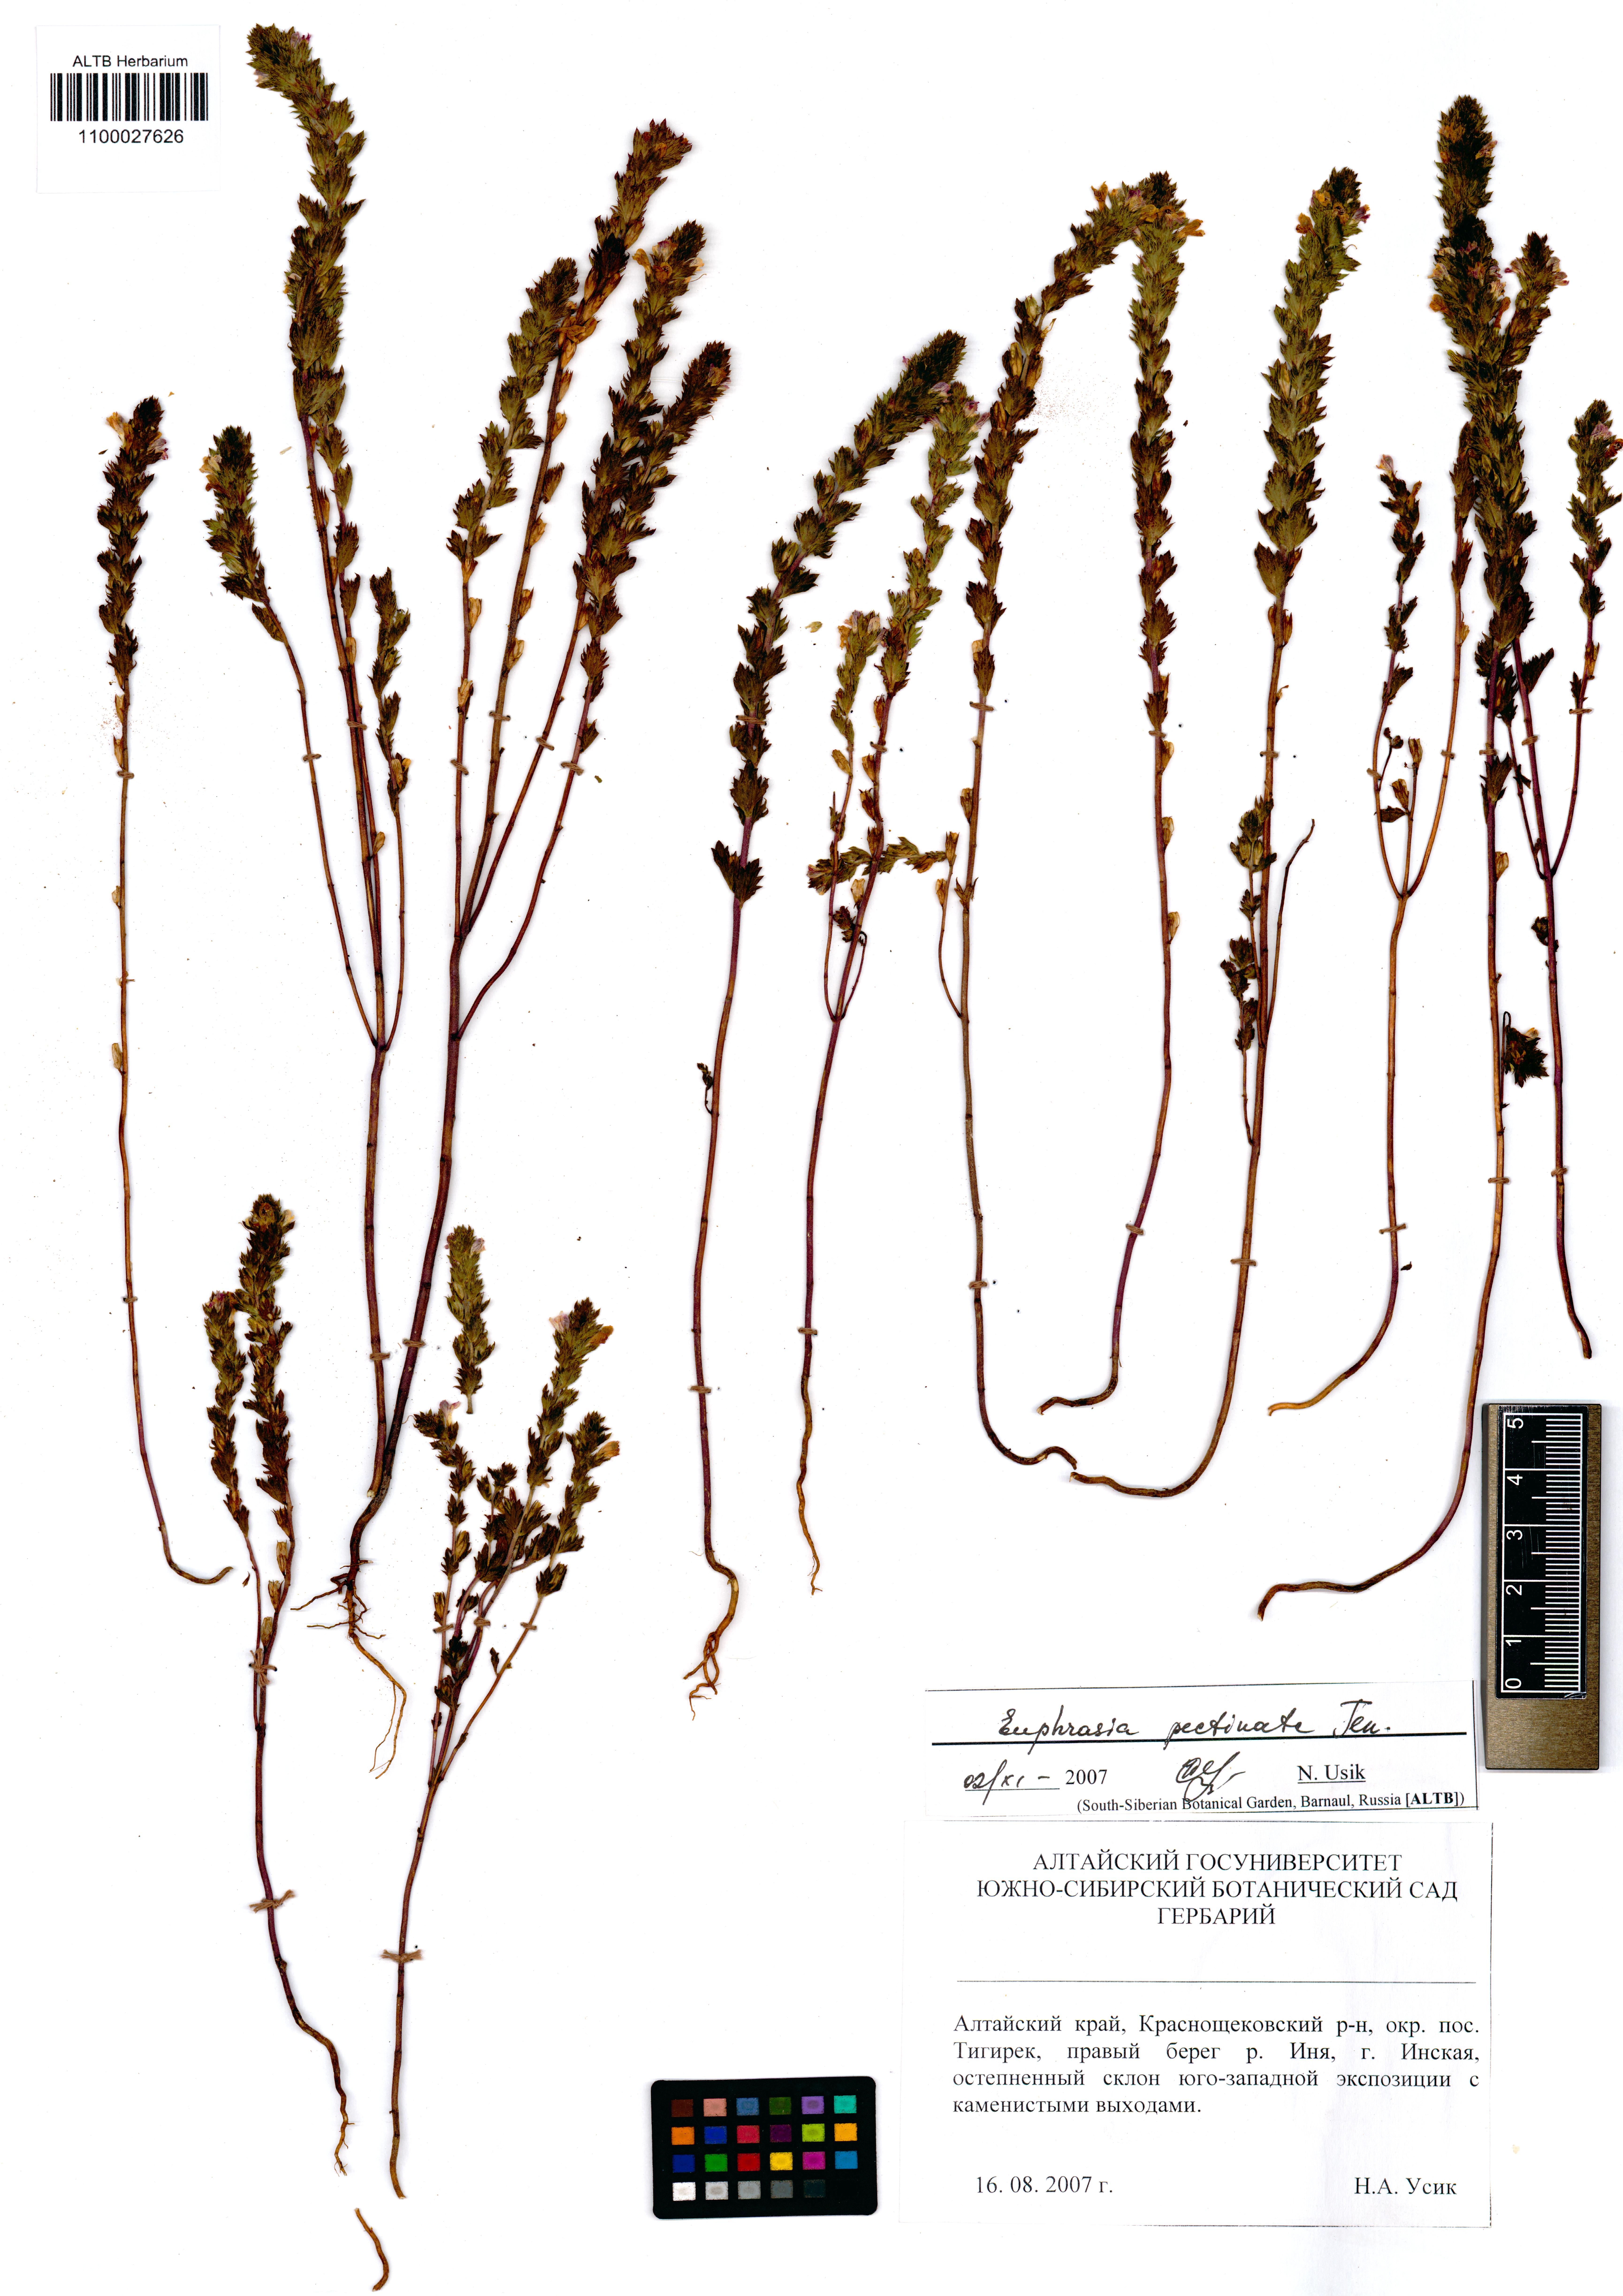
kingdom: Plantae
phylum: Tracheophyta
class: Magnoliopsida
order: Lamiales
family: Orobanchaceae
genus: Euphrasia
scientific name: Euphrasia pectinata
